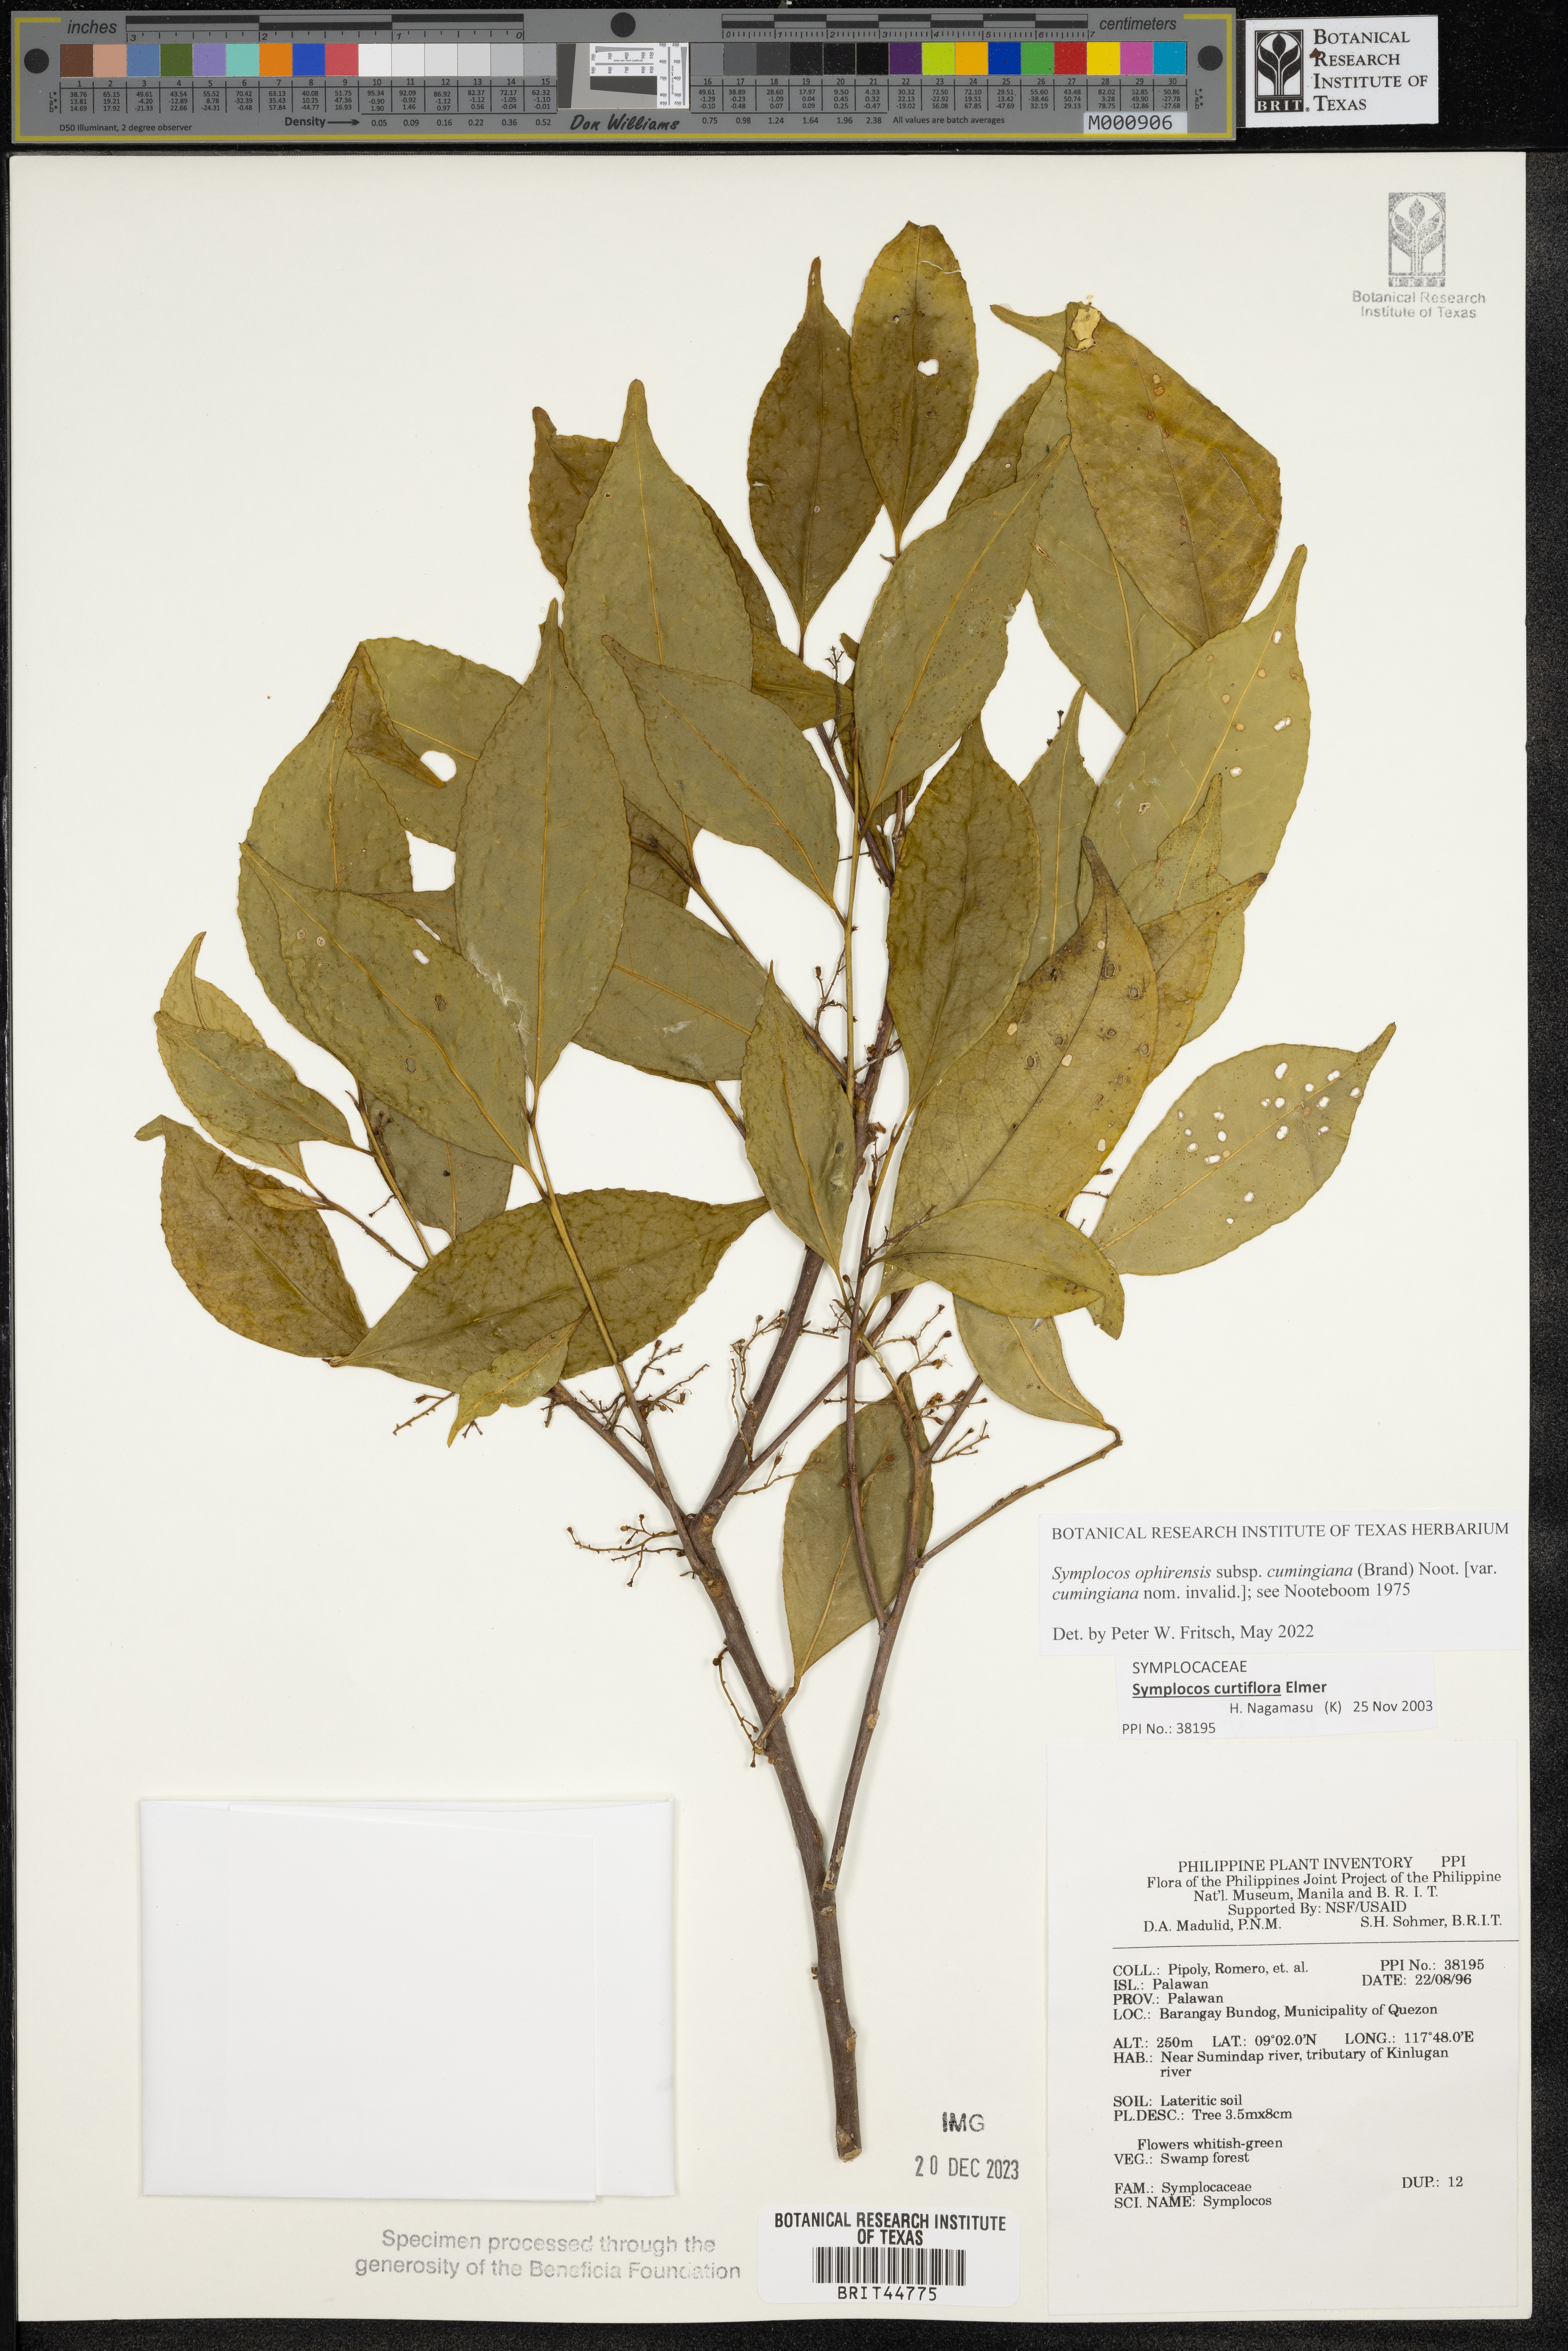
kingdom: Plantae
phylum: Tracheophyta
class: Magnoliopsida
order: Ericales
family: Symplocaceae
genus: Symplocos
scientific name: Symplocos
